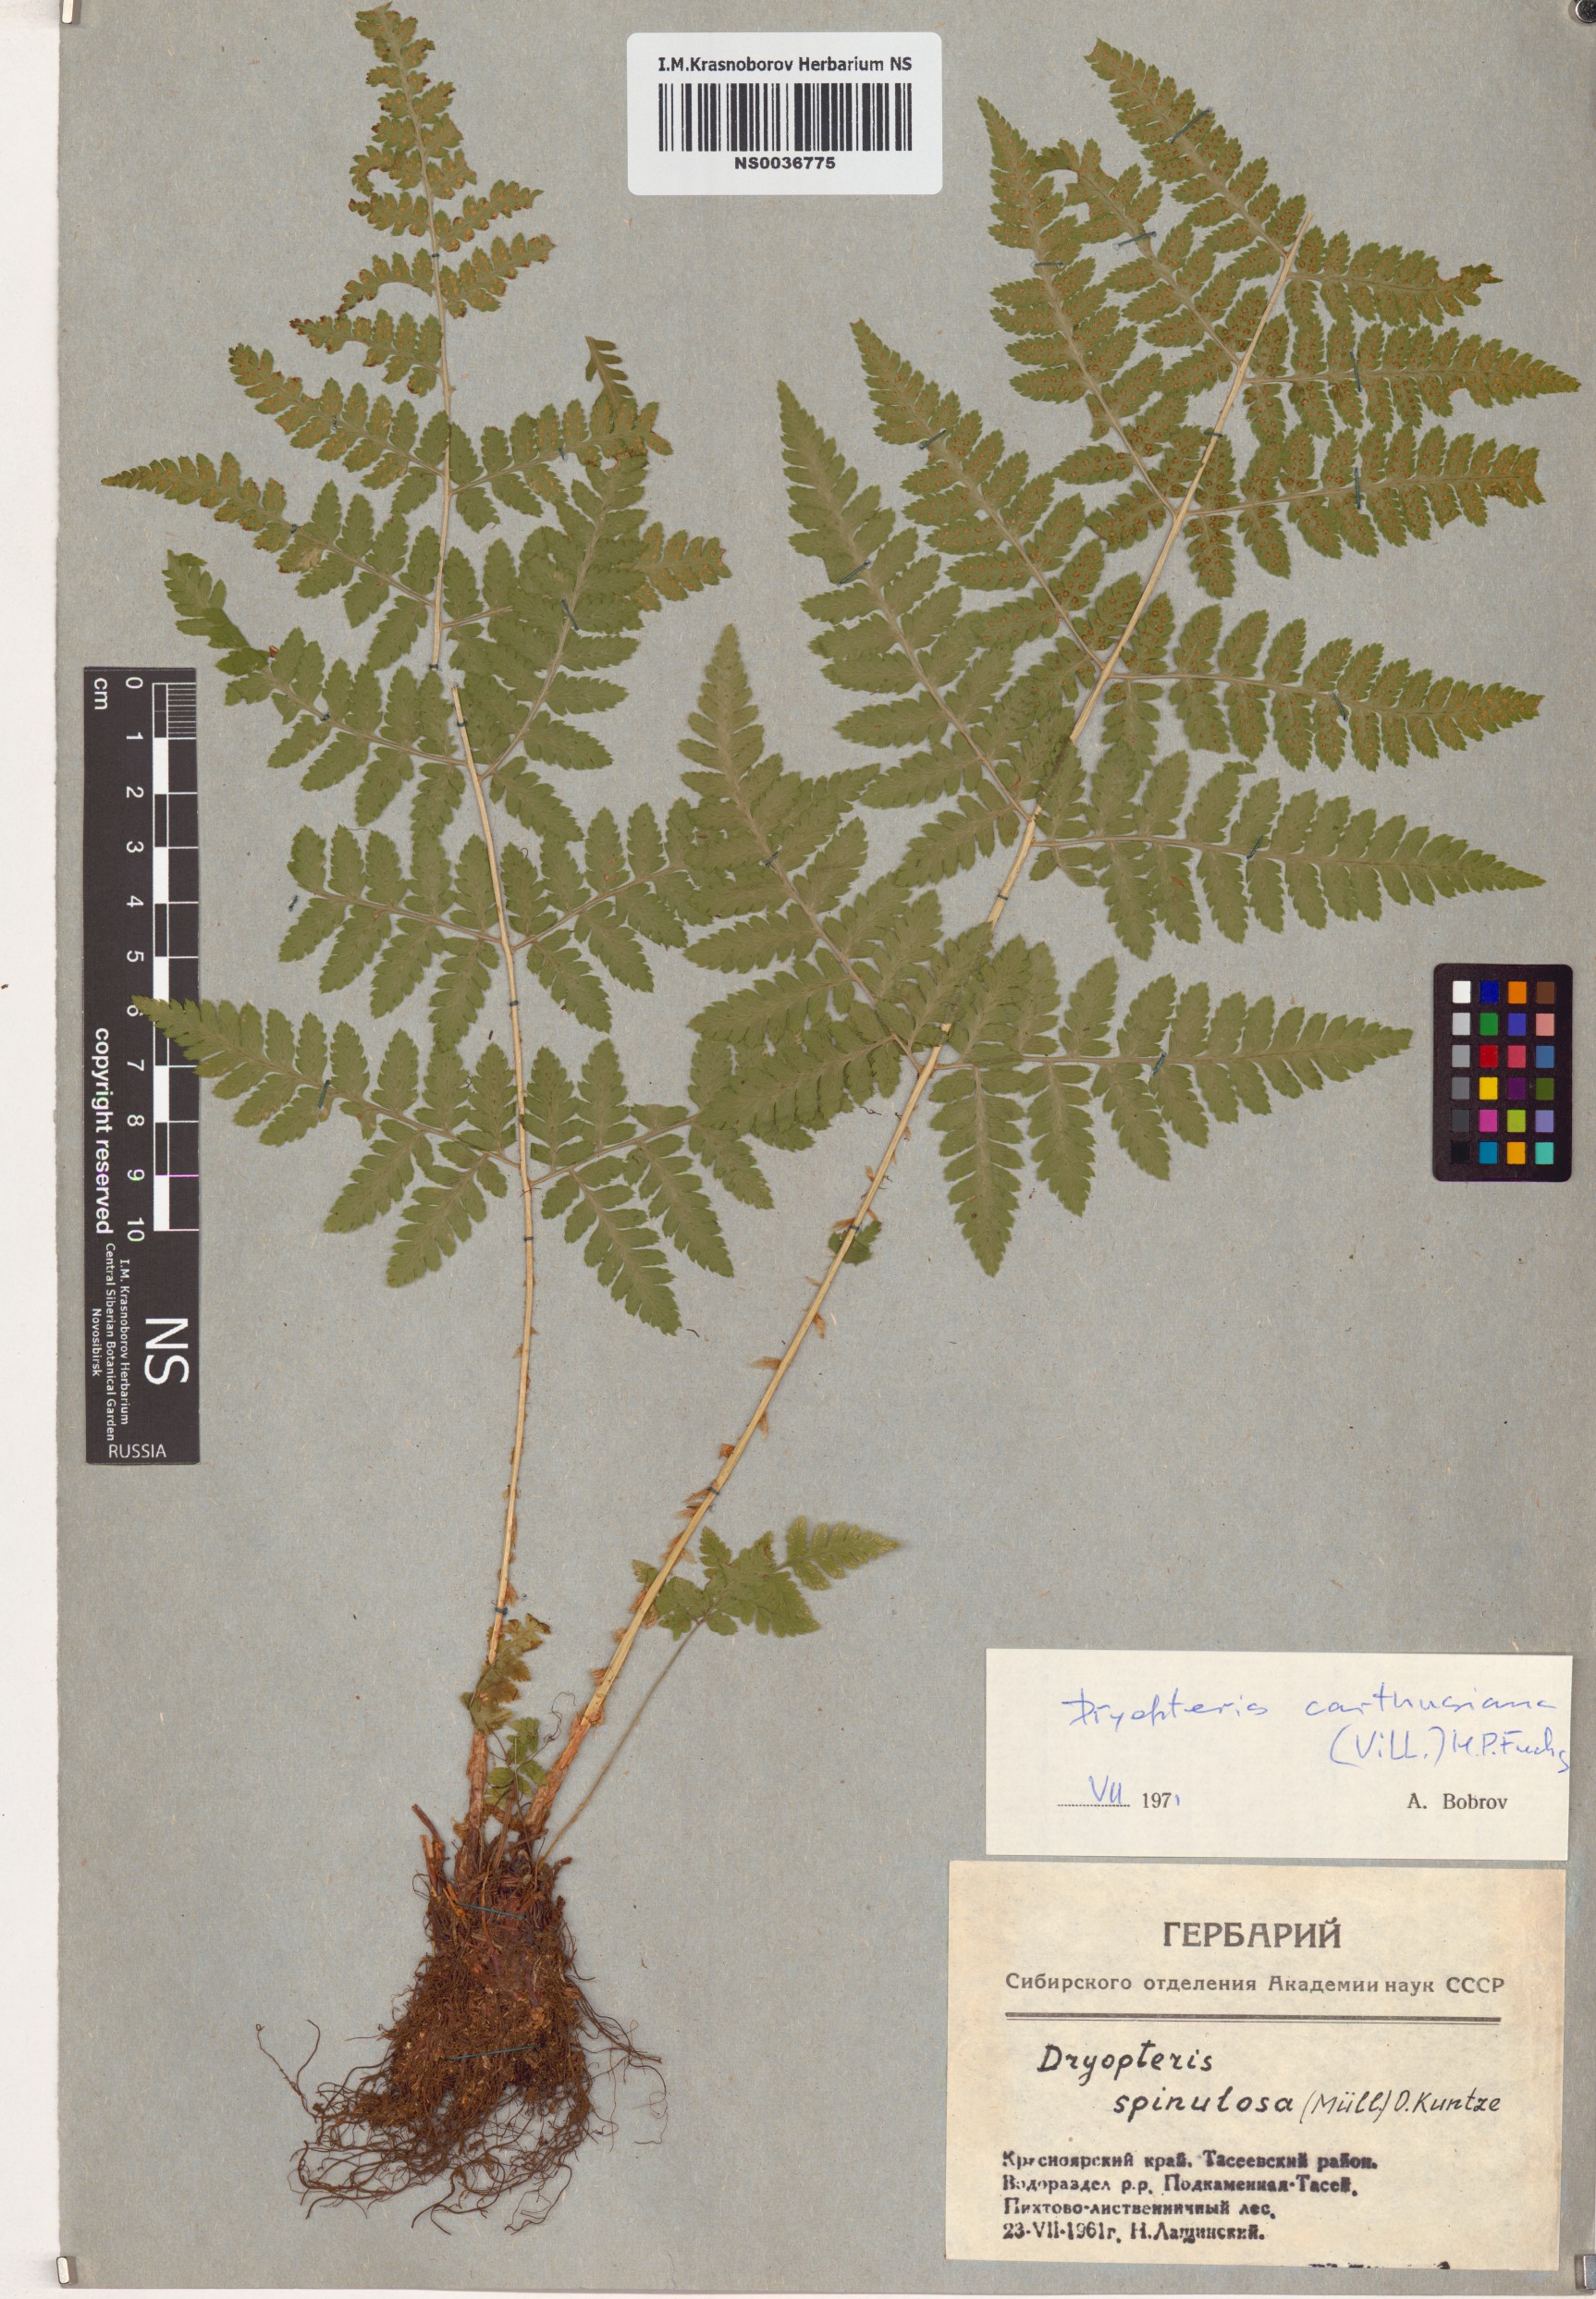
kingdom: Plantae
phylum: Tracheophyta
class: Polypodiopsida
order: Polypodiales
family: Dryopteridaceae
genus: Dryopteris
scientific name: Dryopteris carthusiana
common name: Narrow buckler-fern
